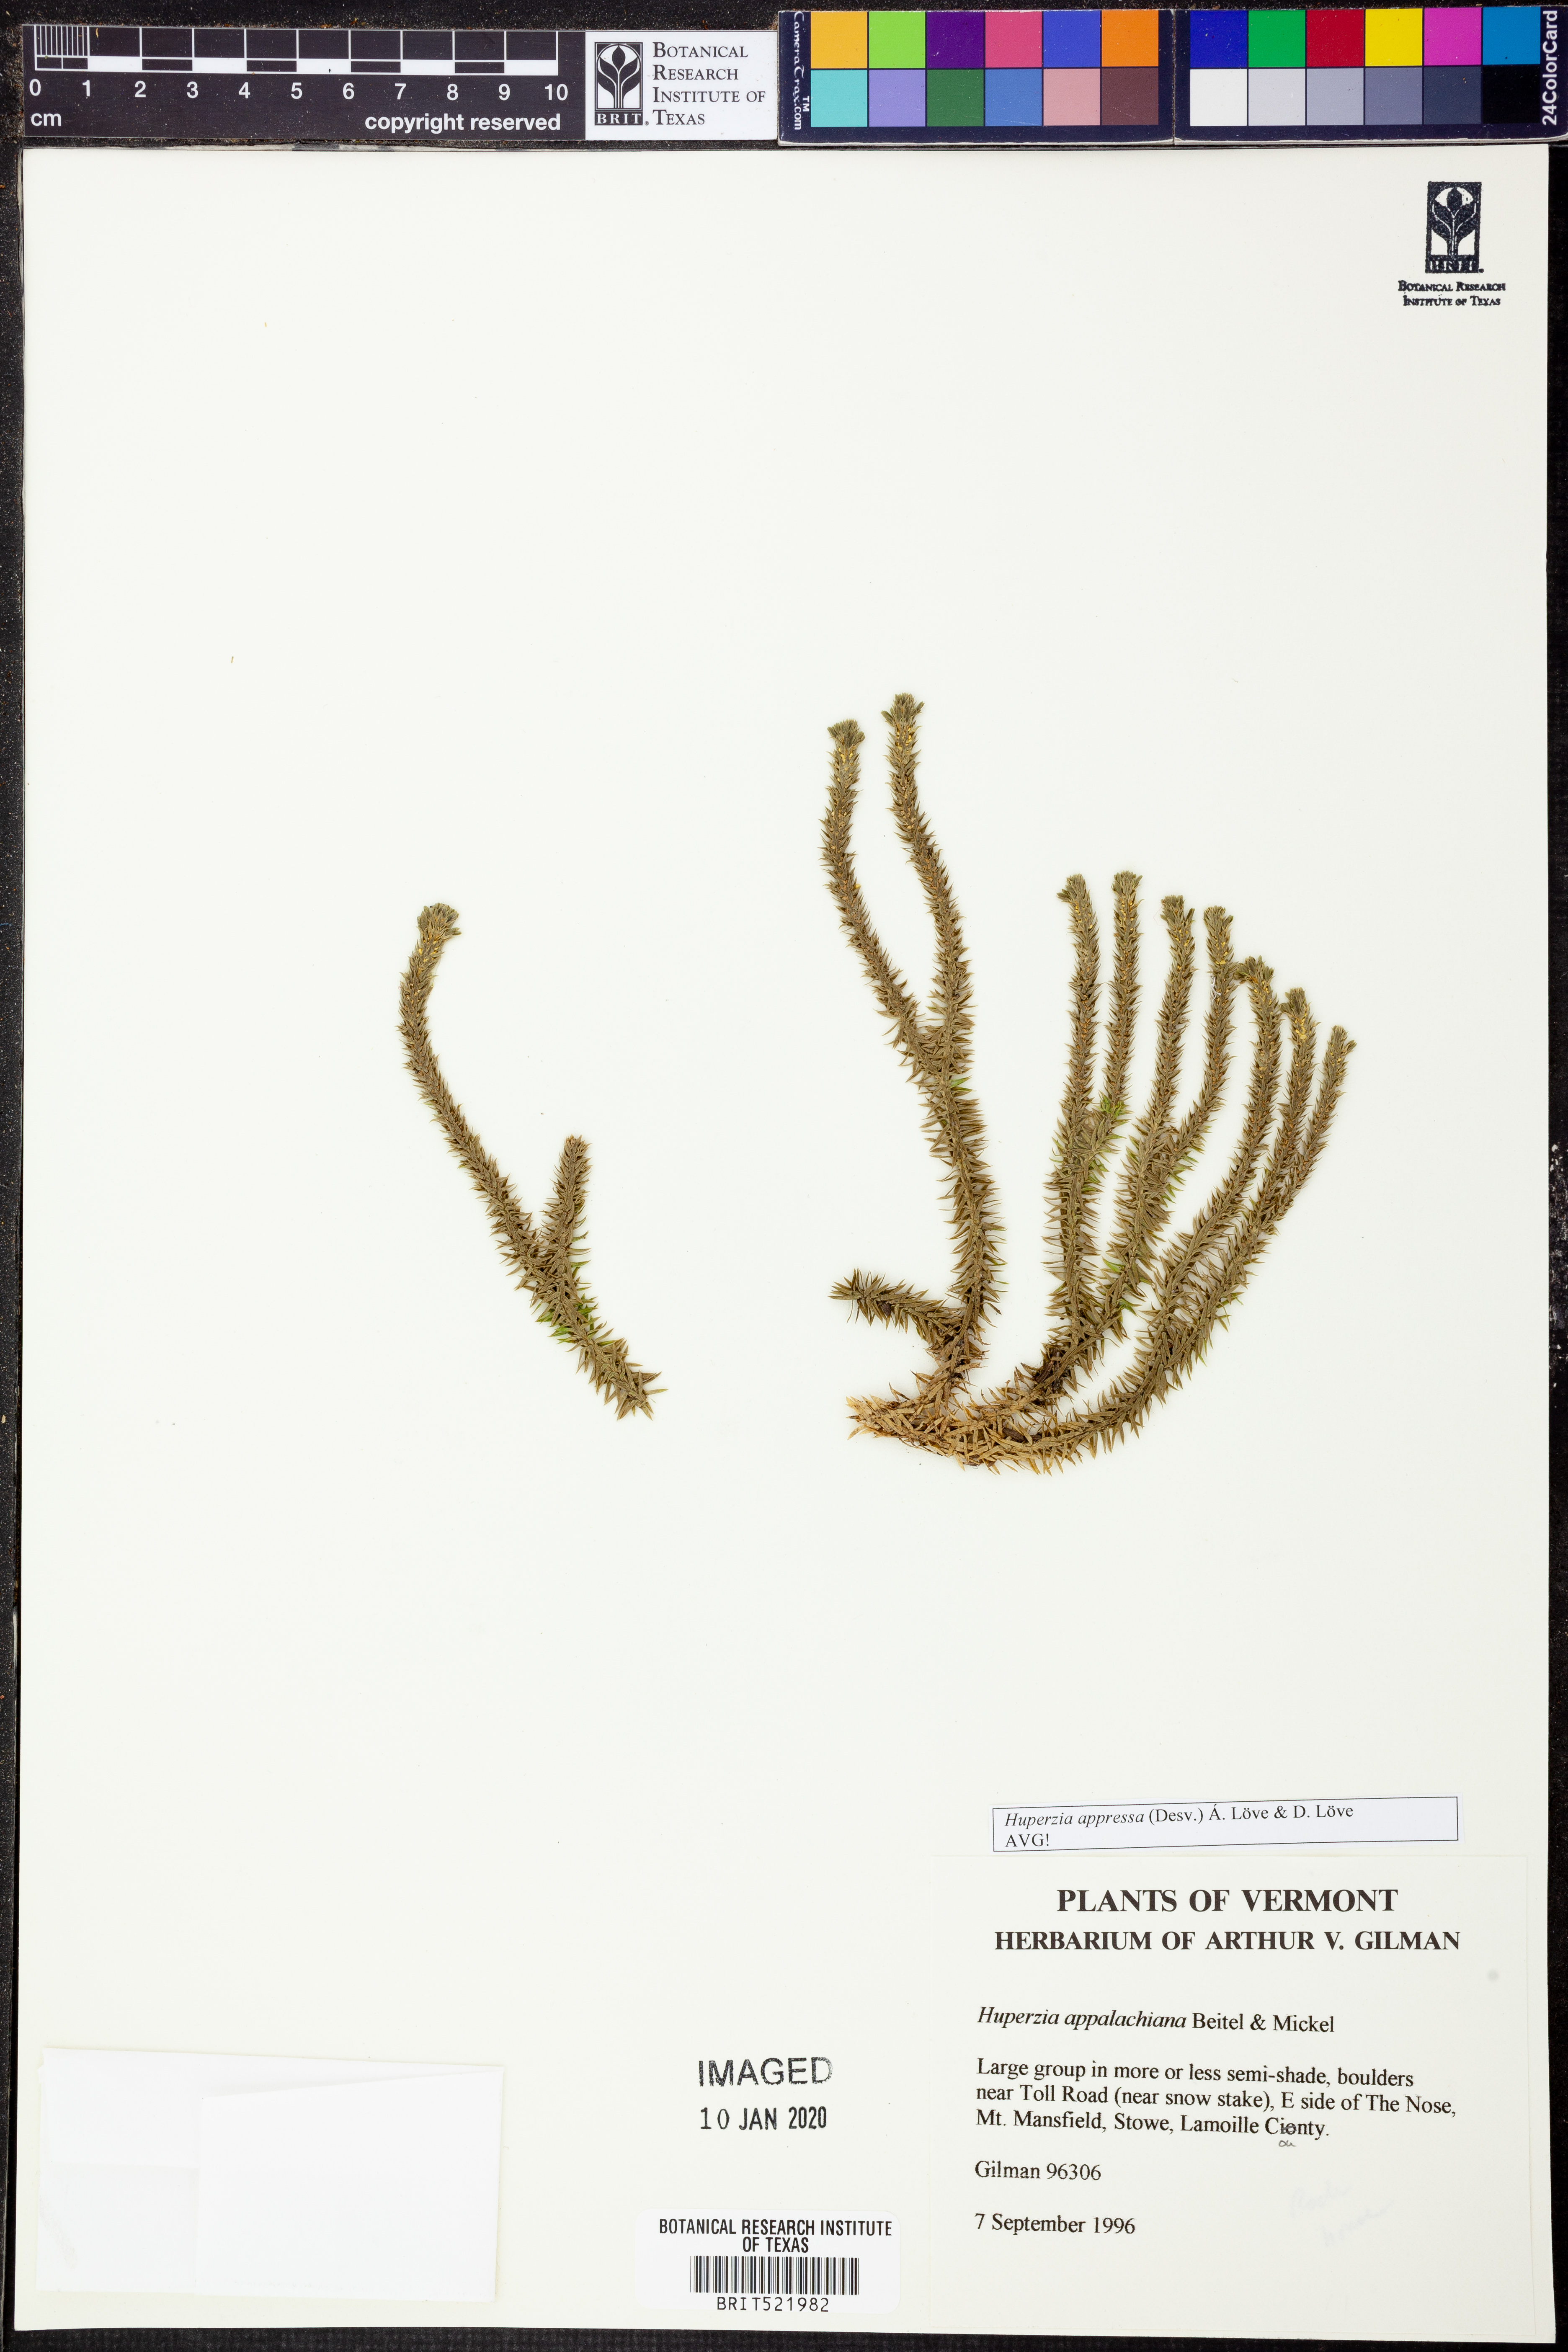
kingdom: Plantae
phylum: Tracheophyta
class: Lycopodiopsida
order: Lycopodiales
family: Lycopodiaceae
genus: Huperzia
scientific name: Huperzia selago
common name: Northern firmoss
